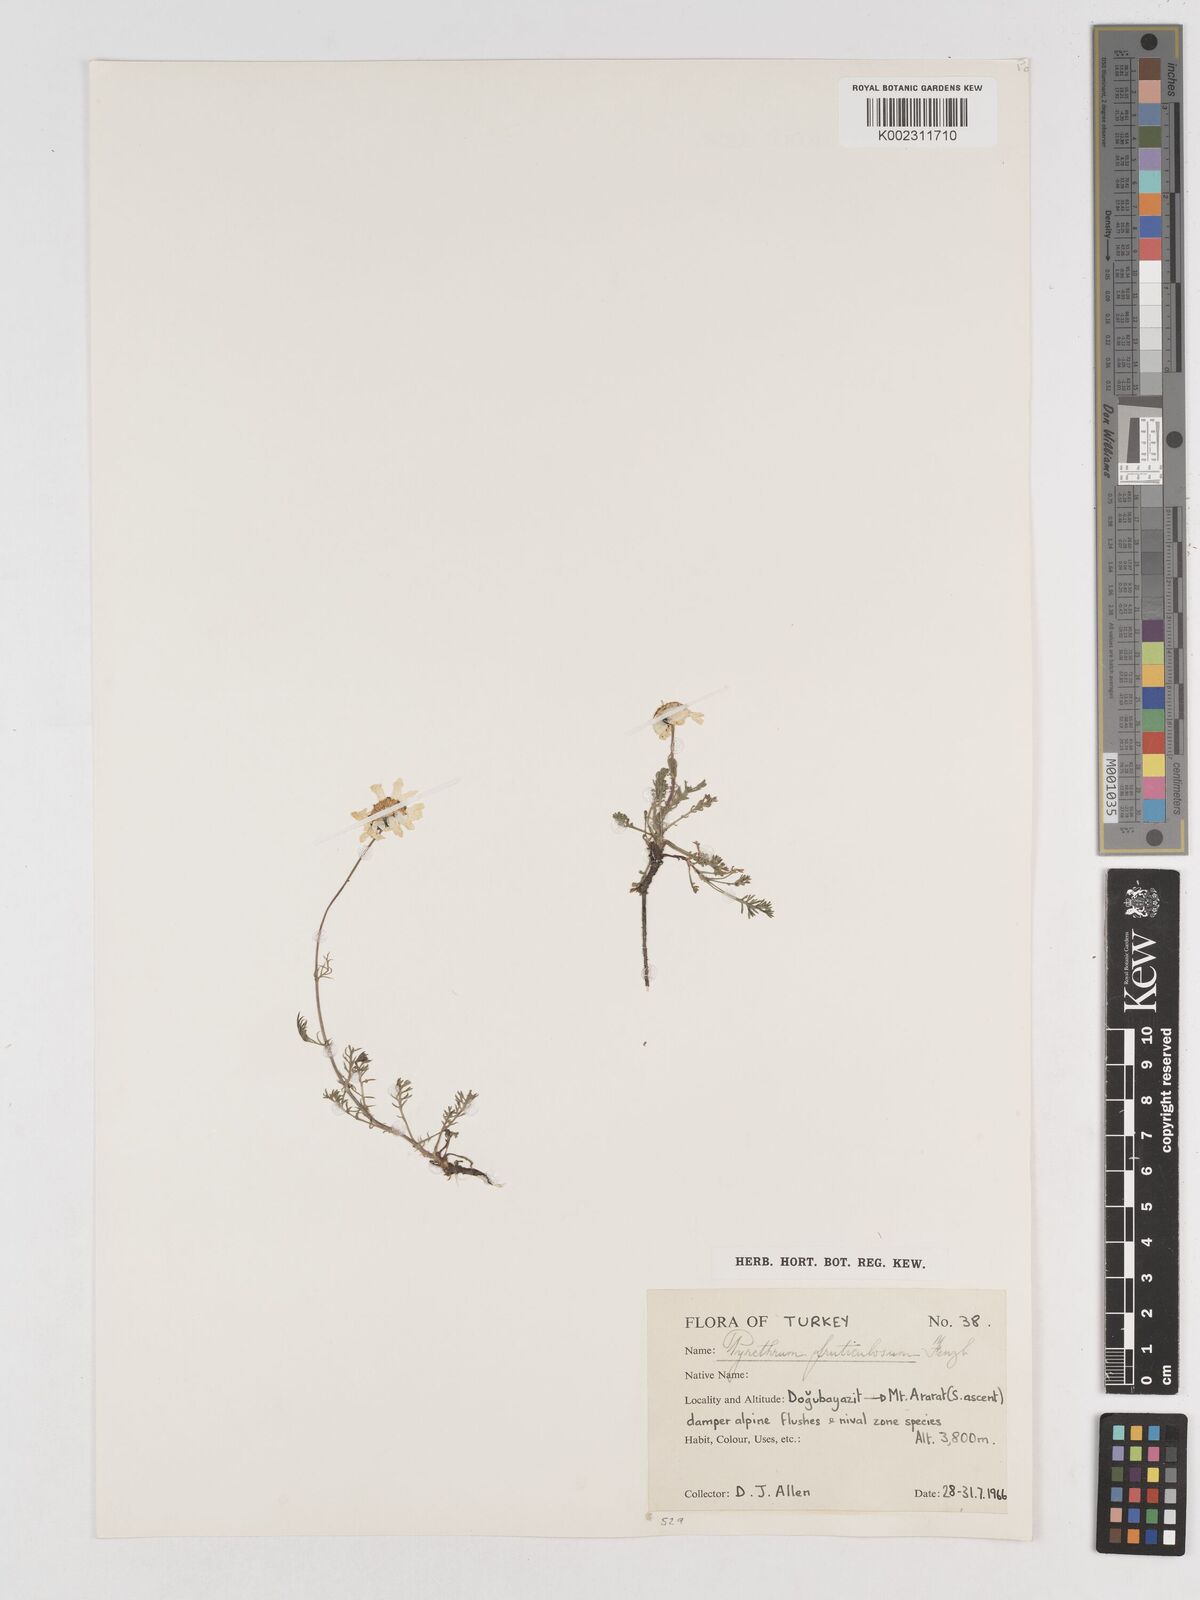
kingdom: Plantae
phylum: Tracheophyta
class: Magnoliopsida
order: Asterales
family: Asteraceae
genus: Tanacetum
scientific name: Tanacetum armenum
